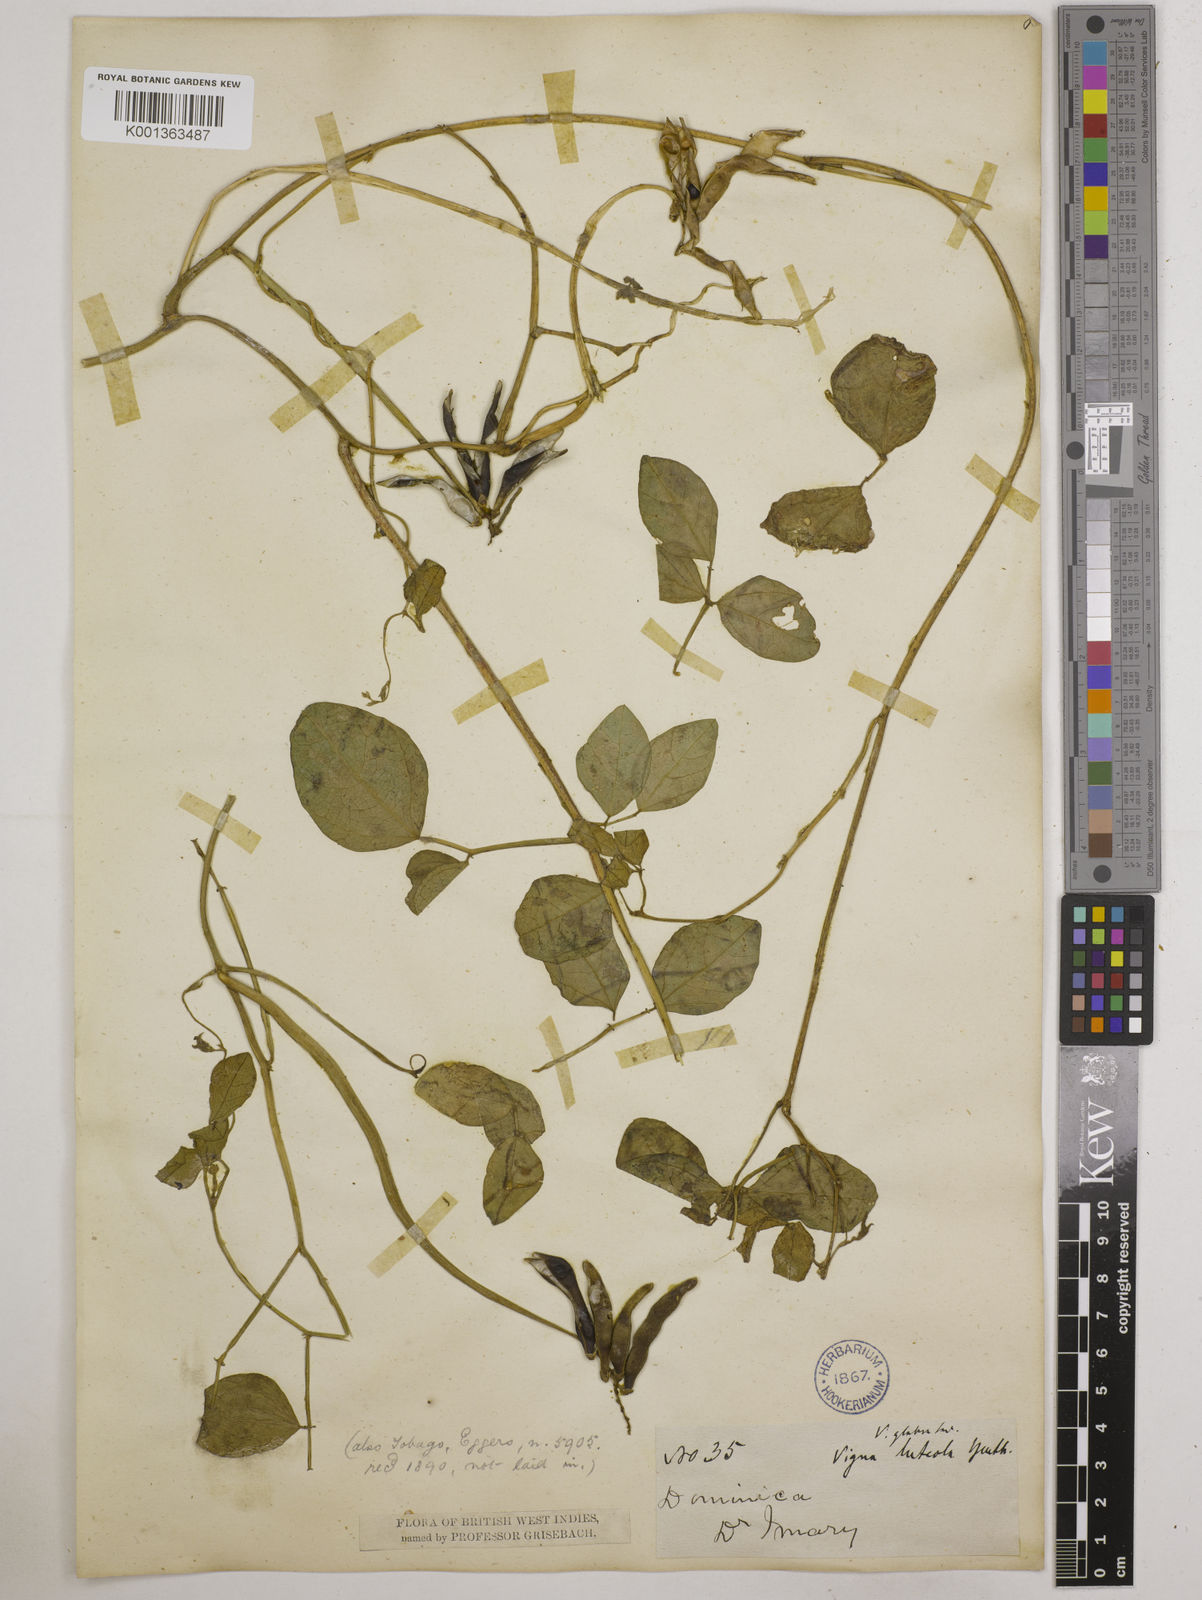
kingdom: Plantae
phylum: Tracheophyta
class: Magnoliopsida
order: Fabales
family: Fabaceae
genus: Vigna
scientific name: Vigna luteola
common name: Hairypod cowpea
